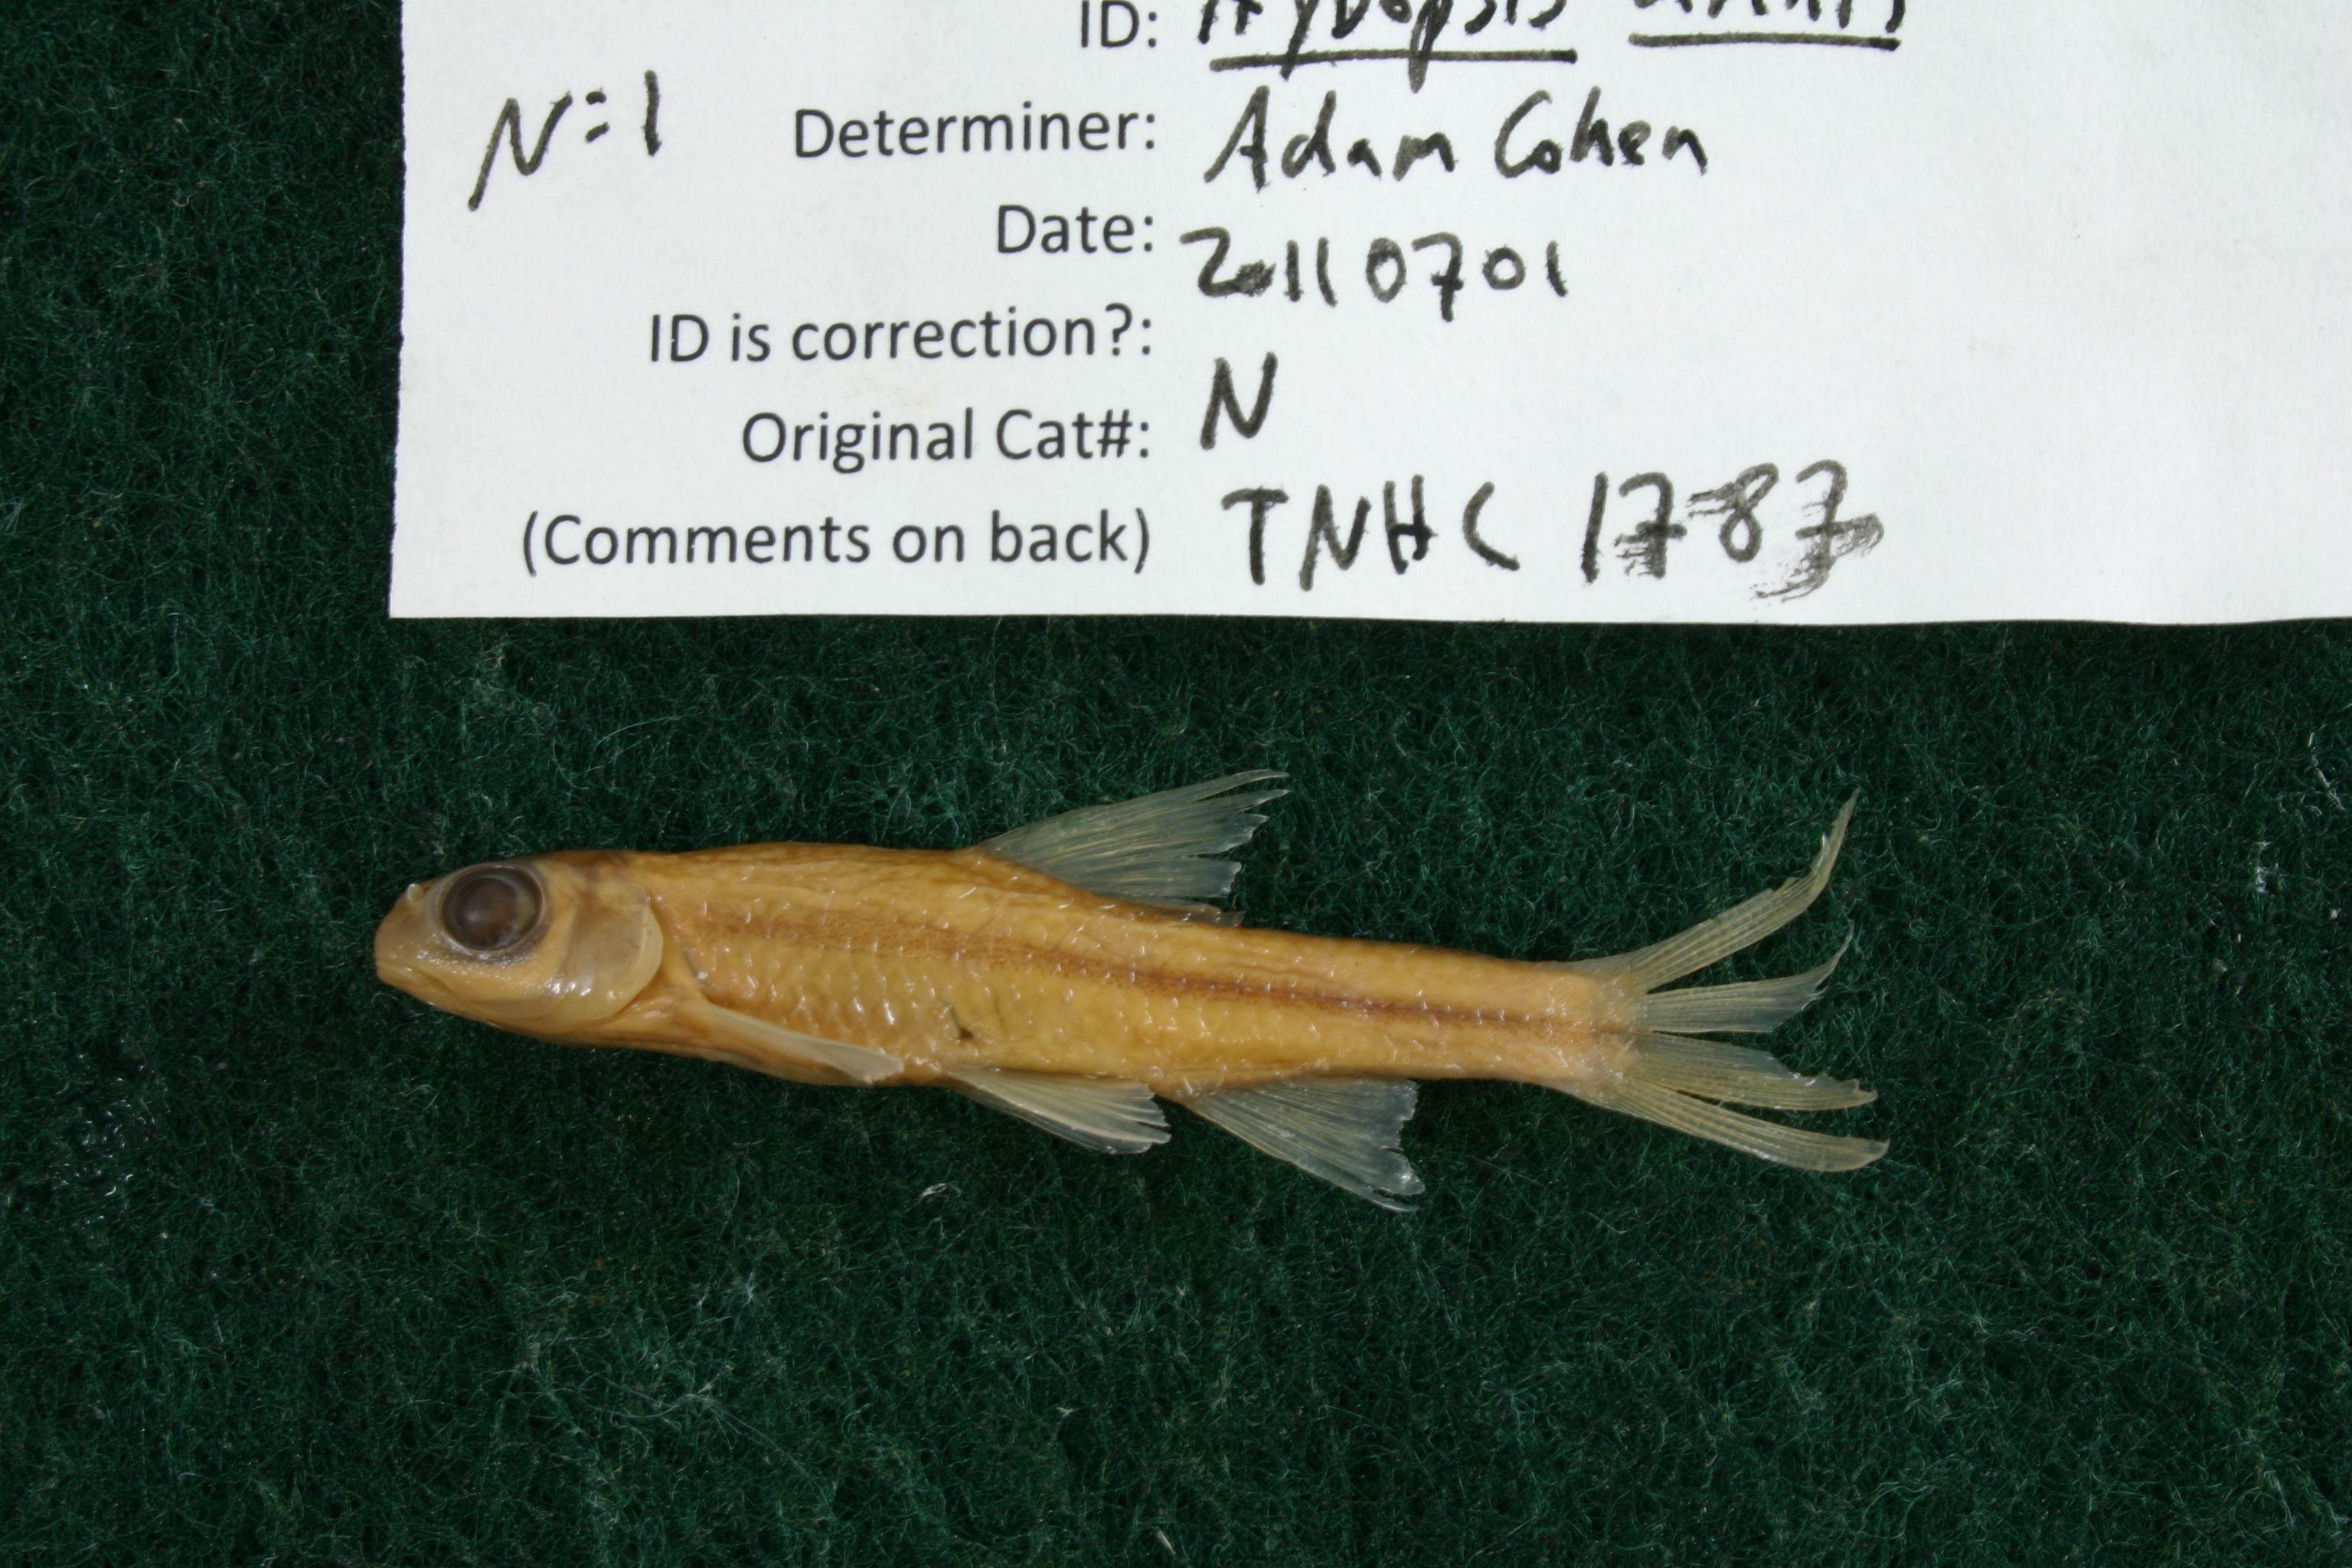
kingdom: Animalia
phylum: Chordata
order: Cypriniformes
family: Cyprinidae
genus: Hybopsis
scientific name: Hybopsis amnis
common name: Pallid shiner
